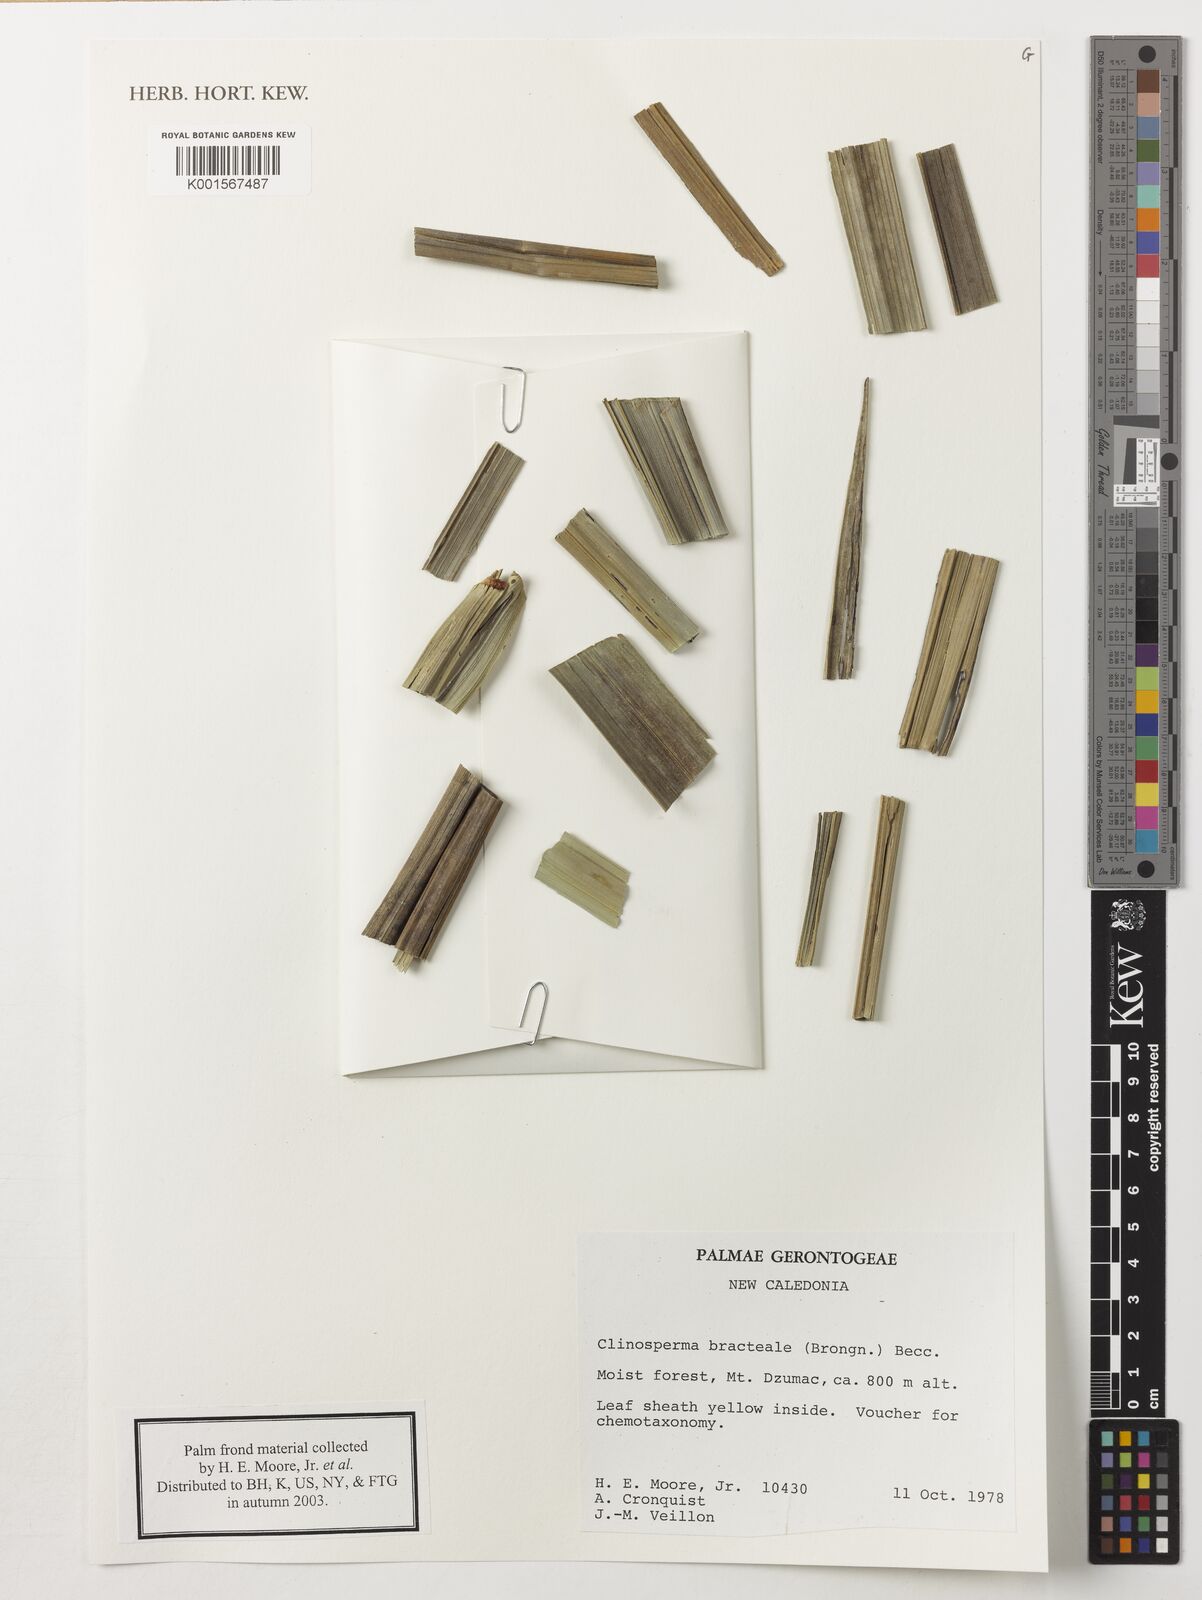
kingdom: Plantae
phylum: Tracheophyta
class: Liliopsida
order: Arecales
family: Arecaceae
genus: Clinosperma
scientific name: Clinosperma bracteale
